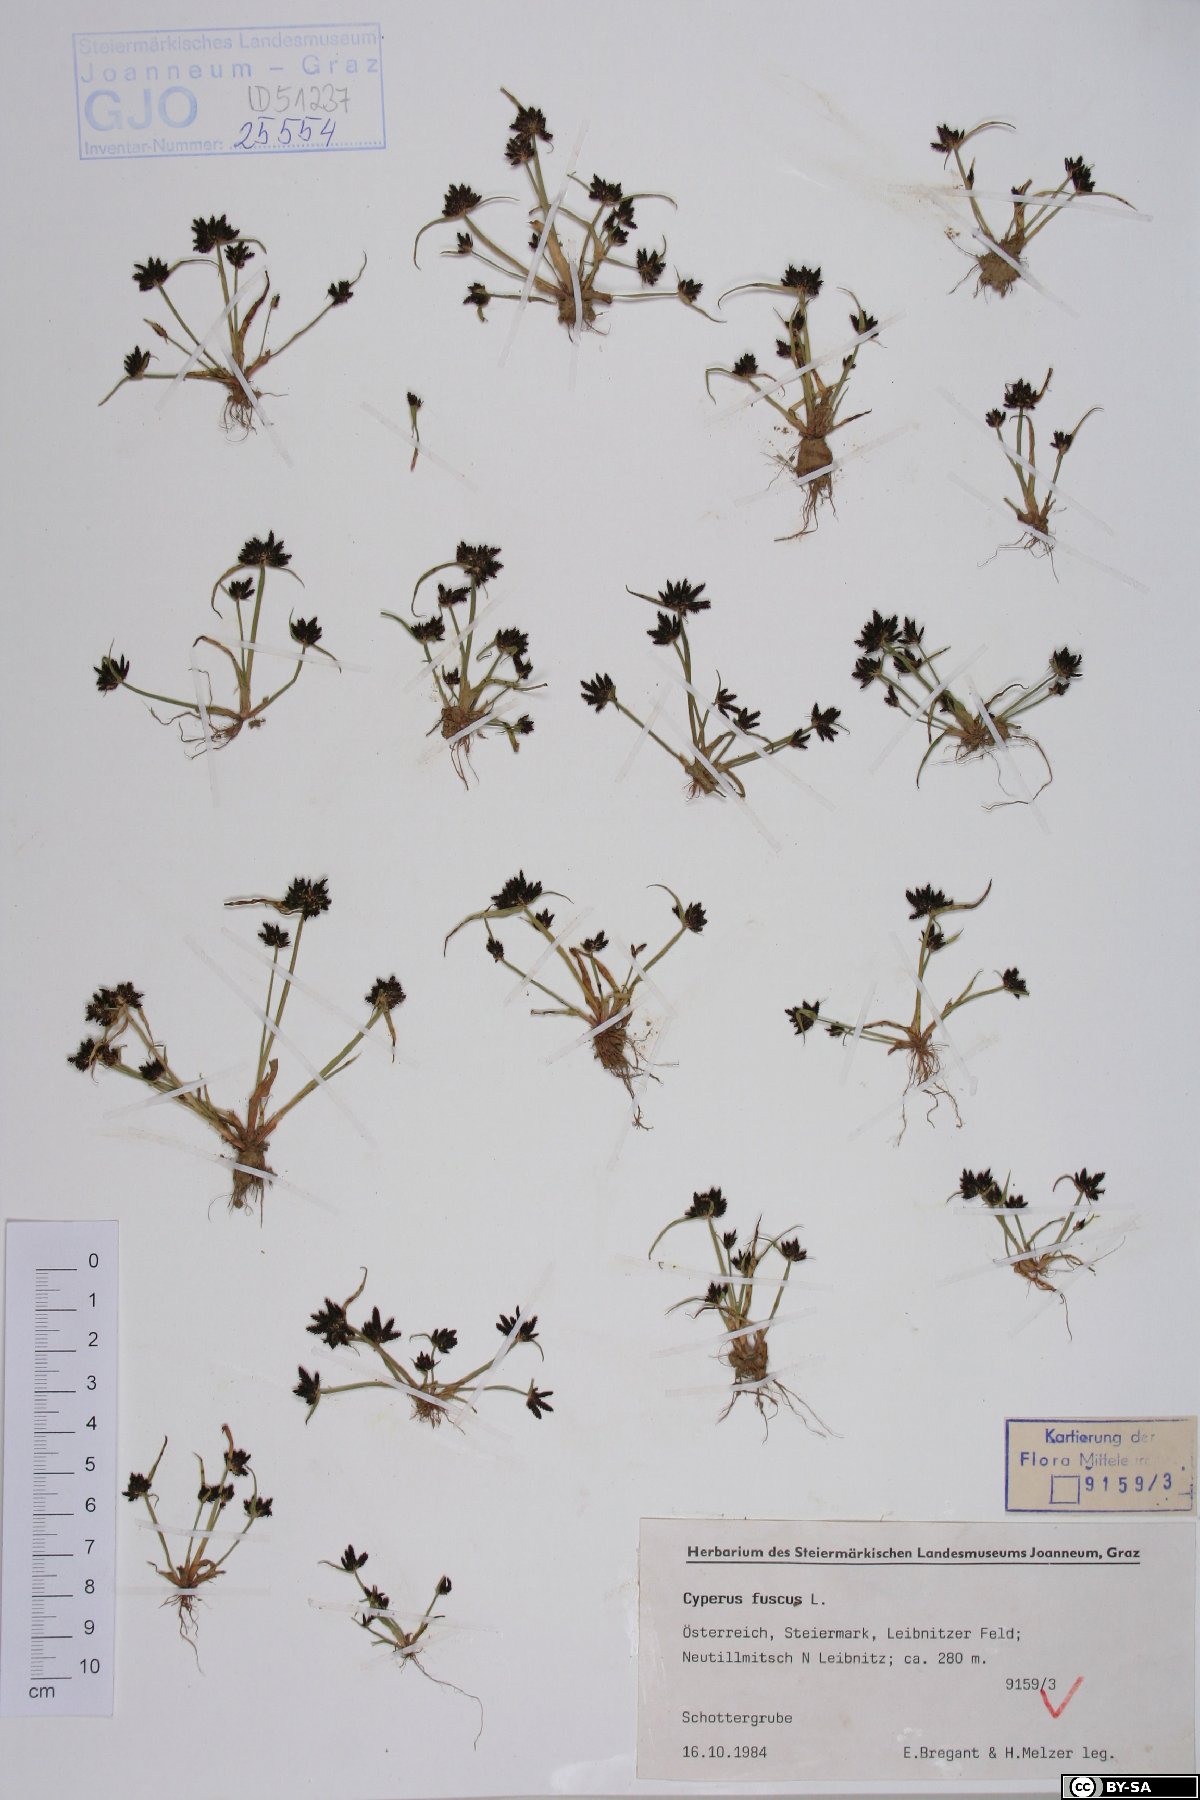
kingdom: Plantae
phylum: Tracheophyta
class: Liliopsida
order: Poales
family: Cyperaceae
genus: Cyperus
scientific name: Cyperus fuscus
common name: Brown galingale
